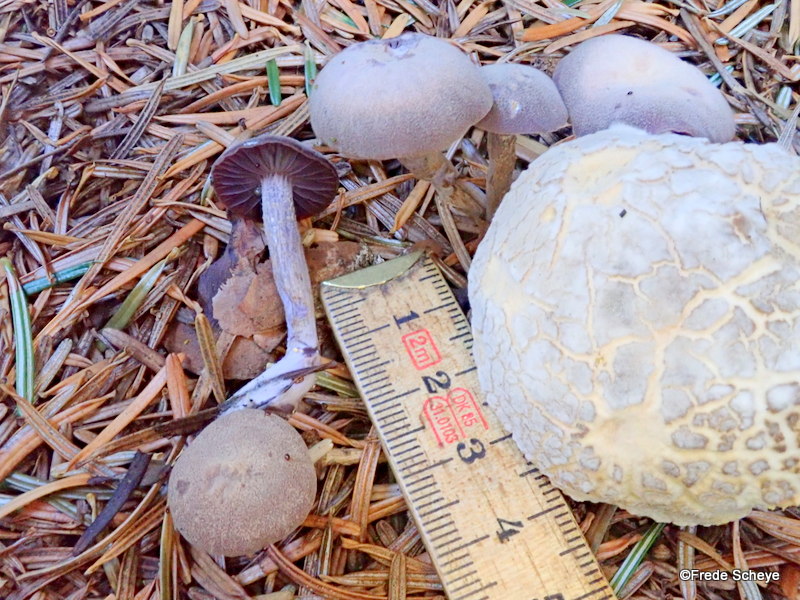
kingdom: Fungi
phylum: Basidiomycota
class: Agaricomycetes
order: Agaricales
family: Hydnangiaceae
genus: Laccaria
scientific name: Laccaria amethystina
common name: violet ametysthat
